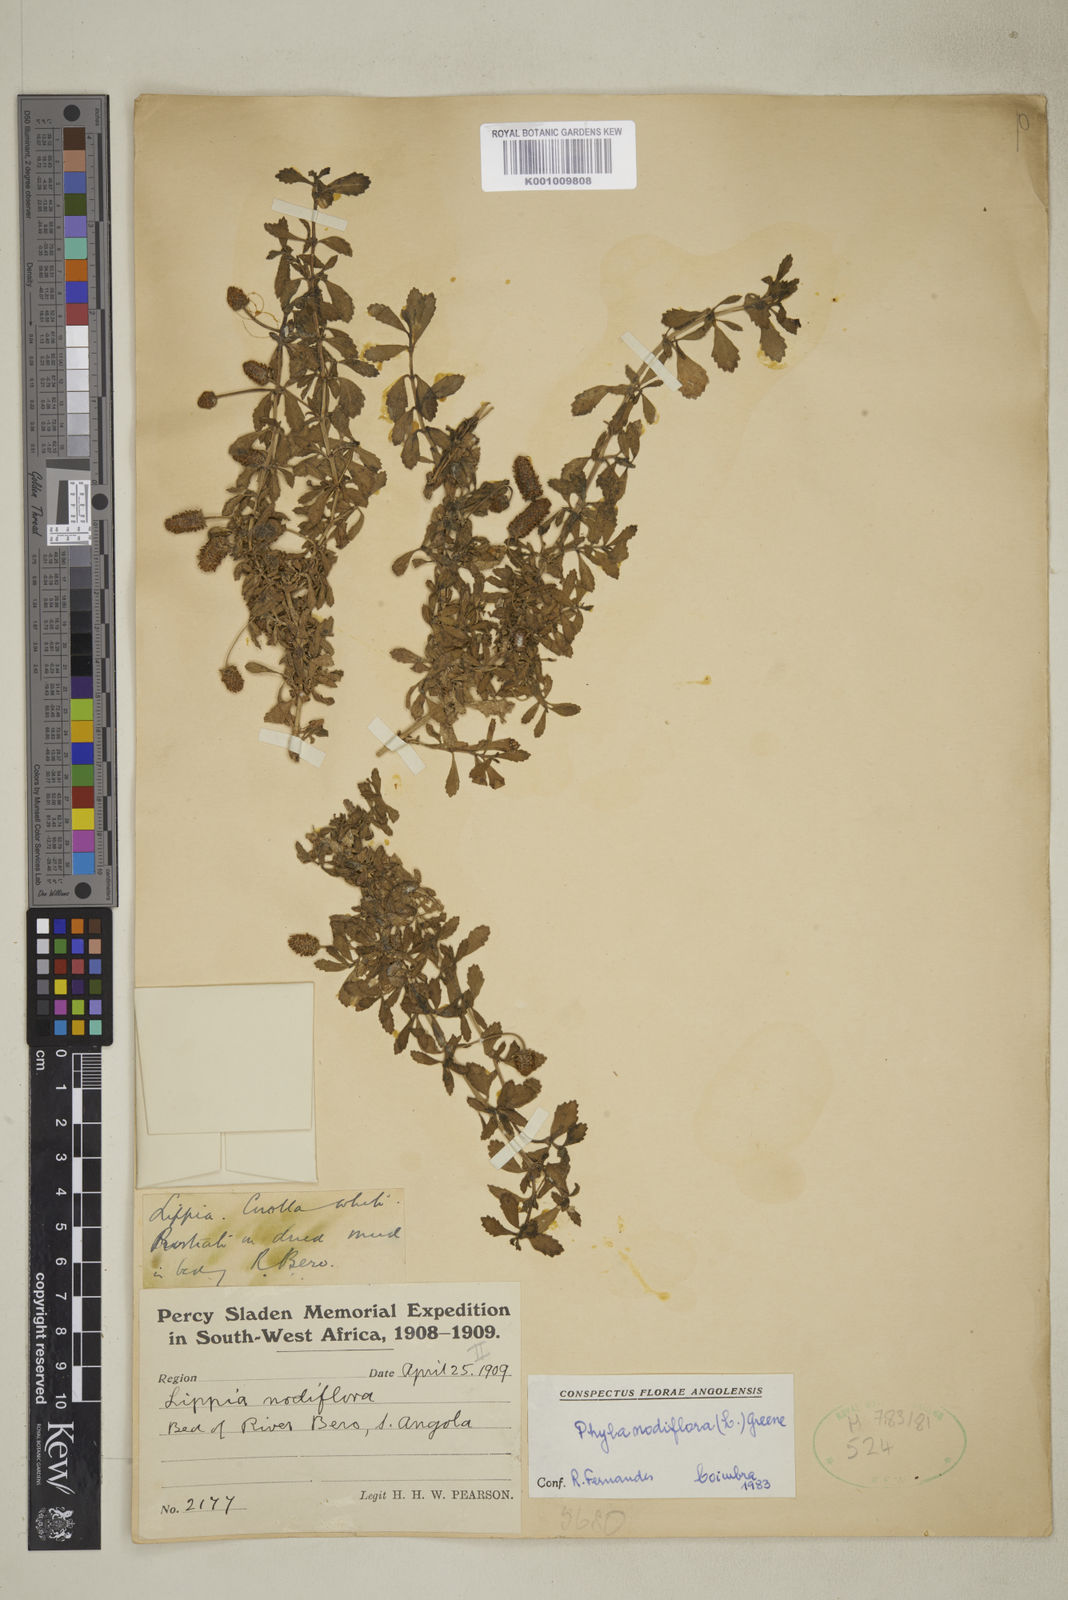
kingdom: Plantae
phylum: Tracheophyta
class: Magnoliopsida
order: Lamiales
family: Verbenaceae
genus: Phyla
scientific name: Phyla nodiflora
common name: Frogfruit
